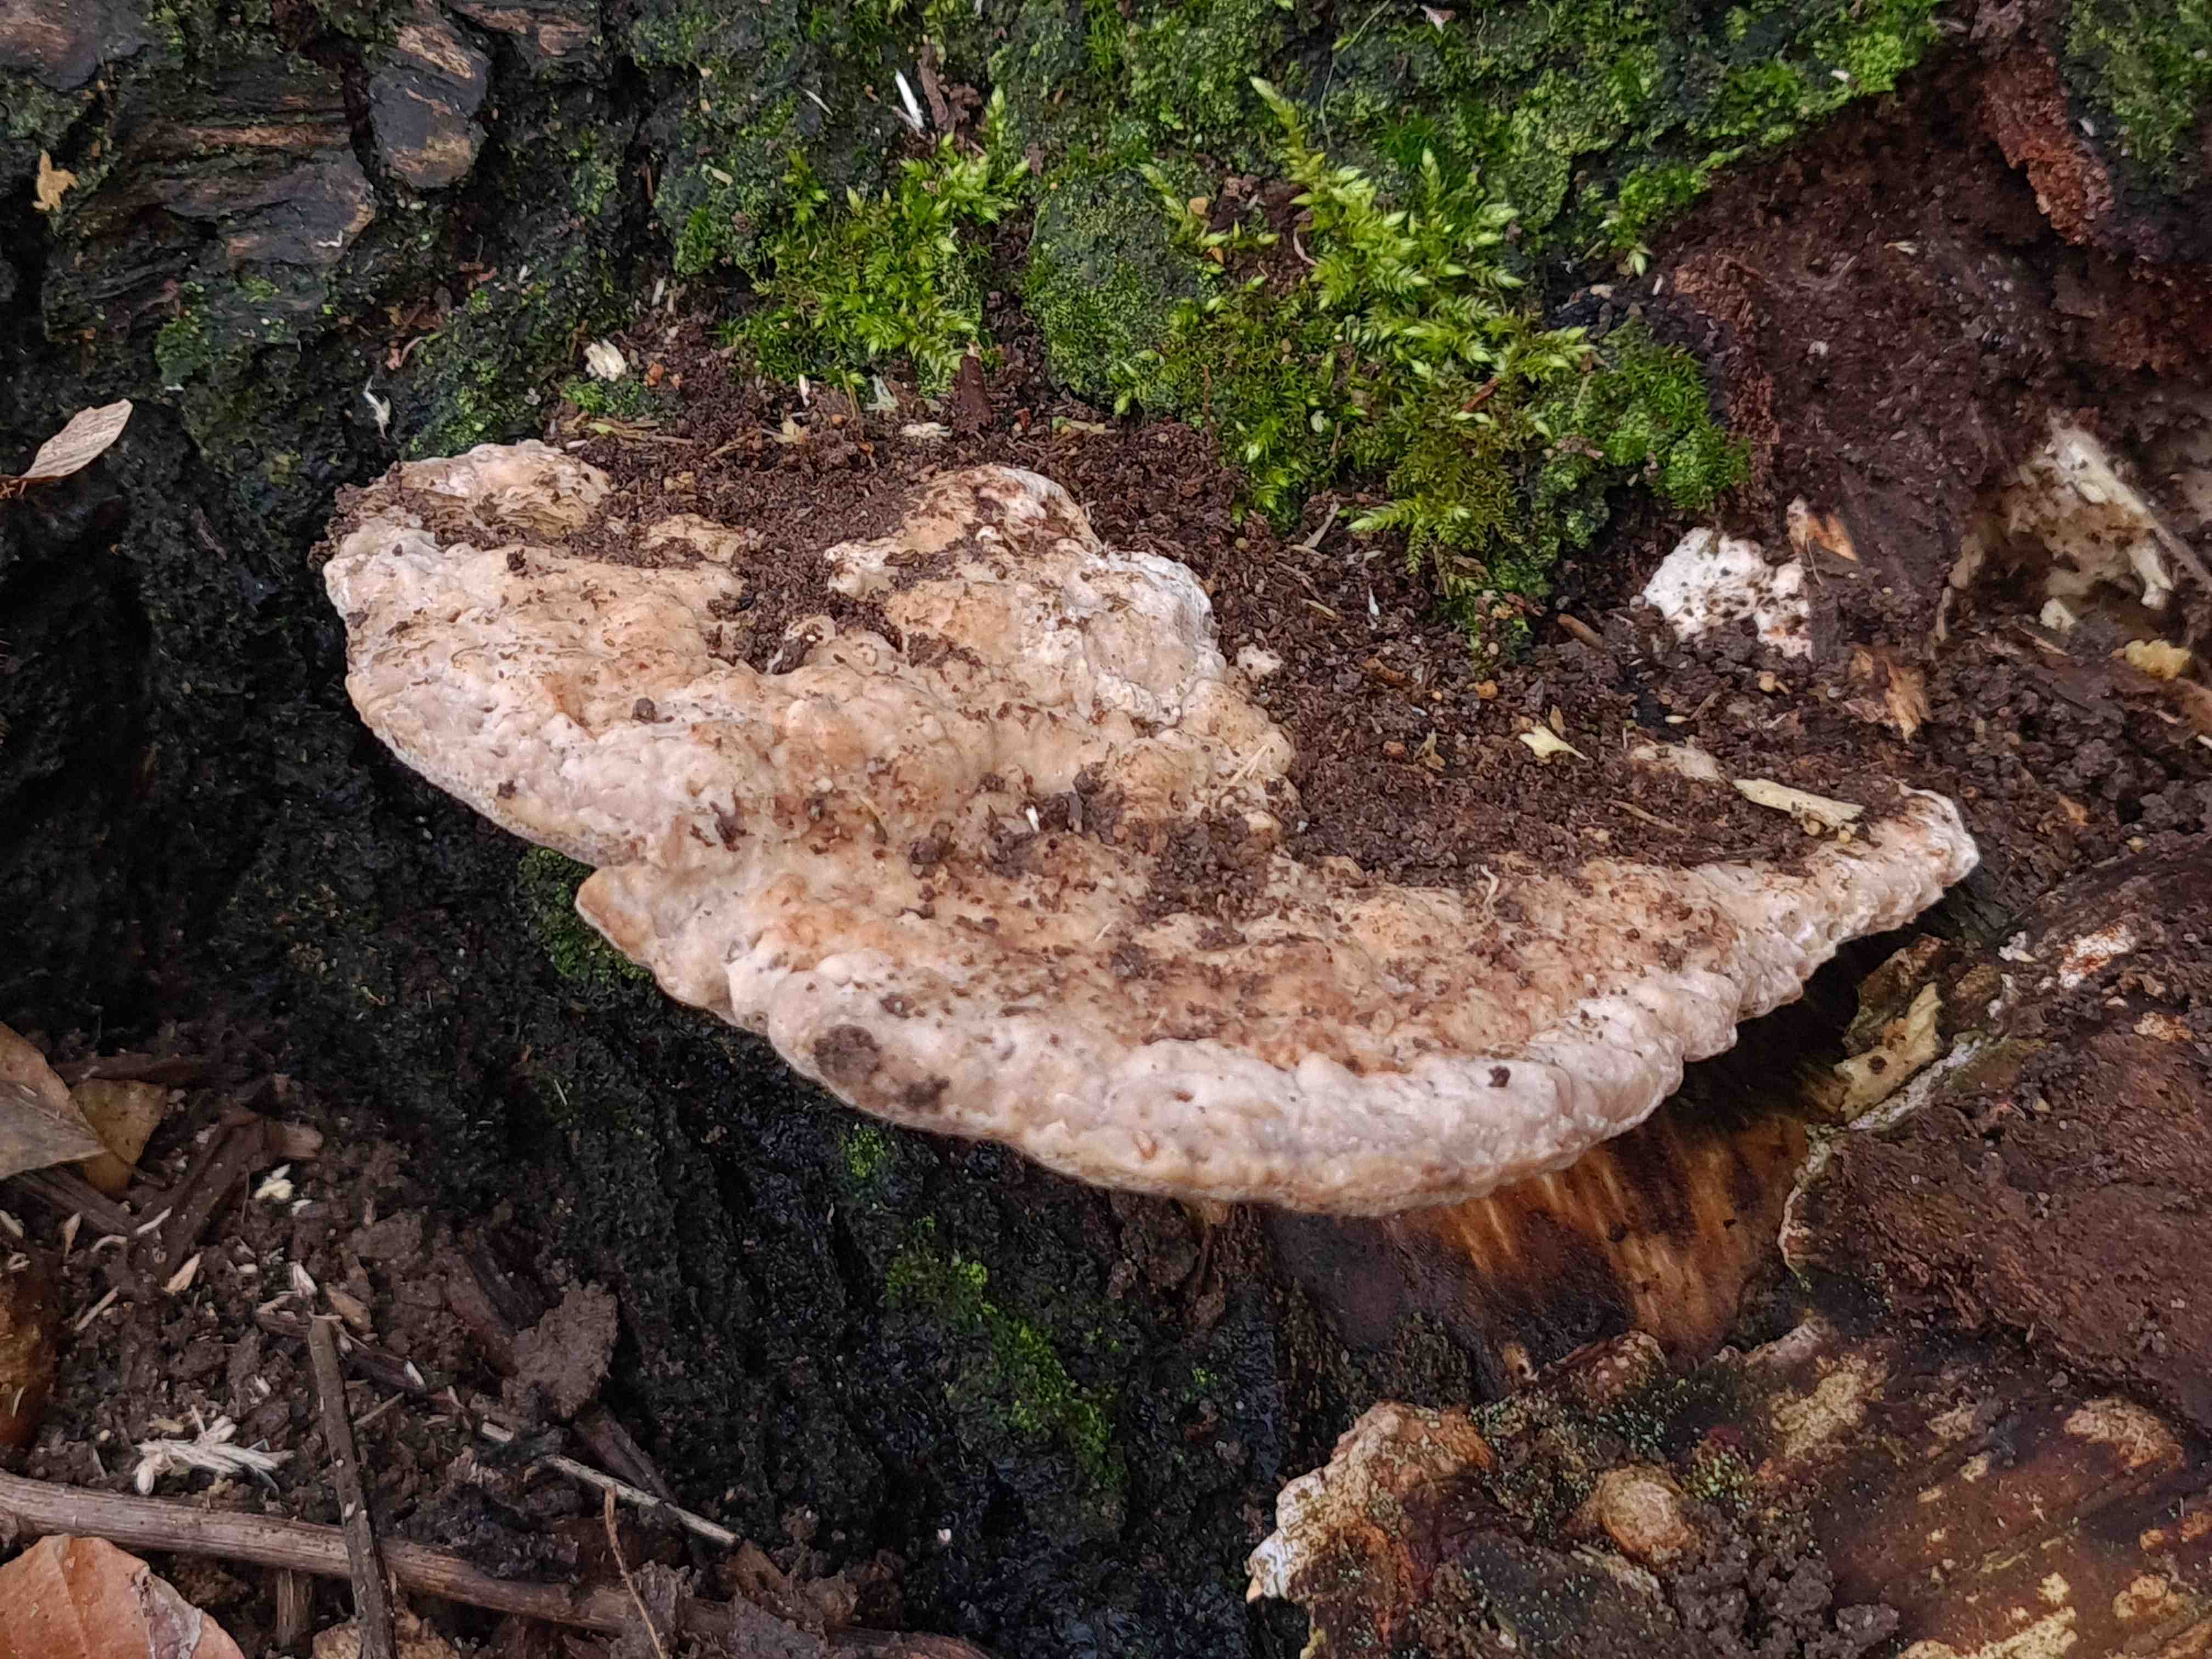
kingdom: Fungi
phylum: Basidiomycota
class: Agaricomycetes
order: Polyporales
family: Polyporaceae
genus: Trametes
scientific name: Trametes gibbosa
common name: puklet læderporesvamp
